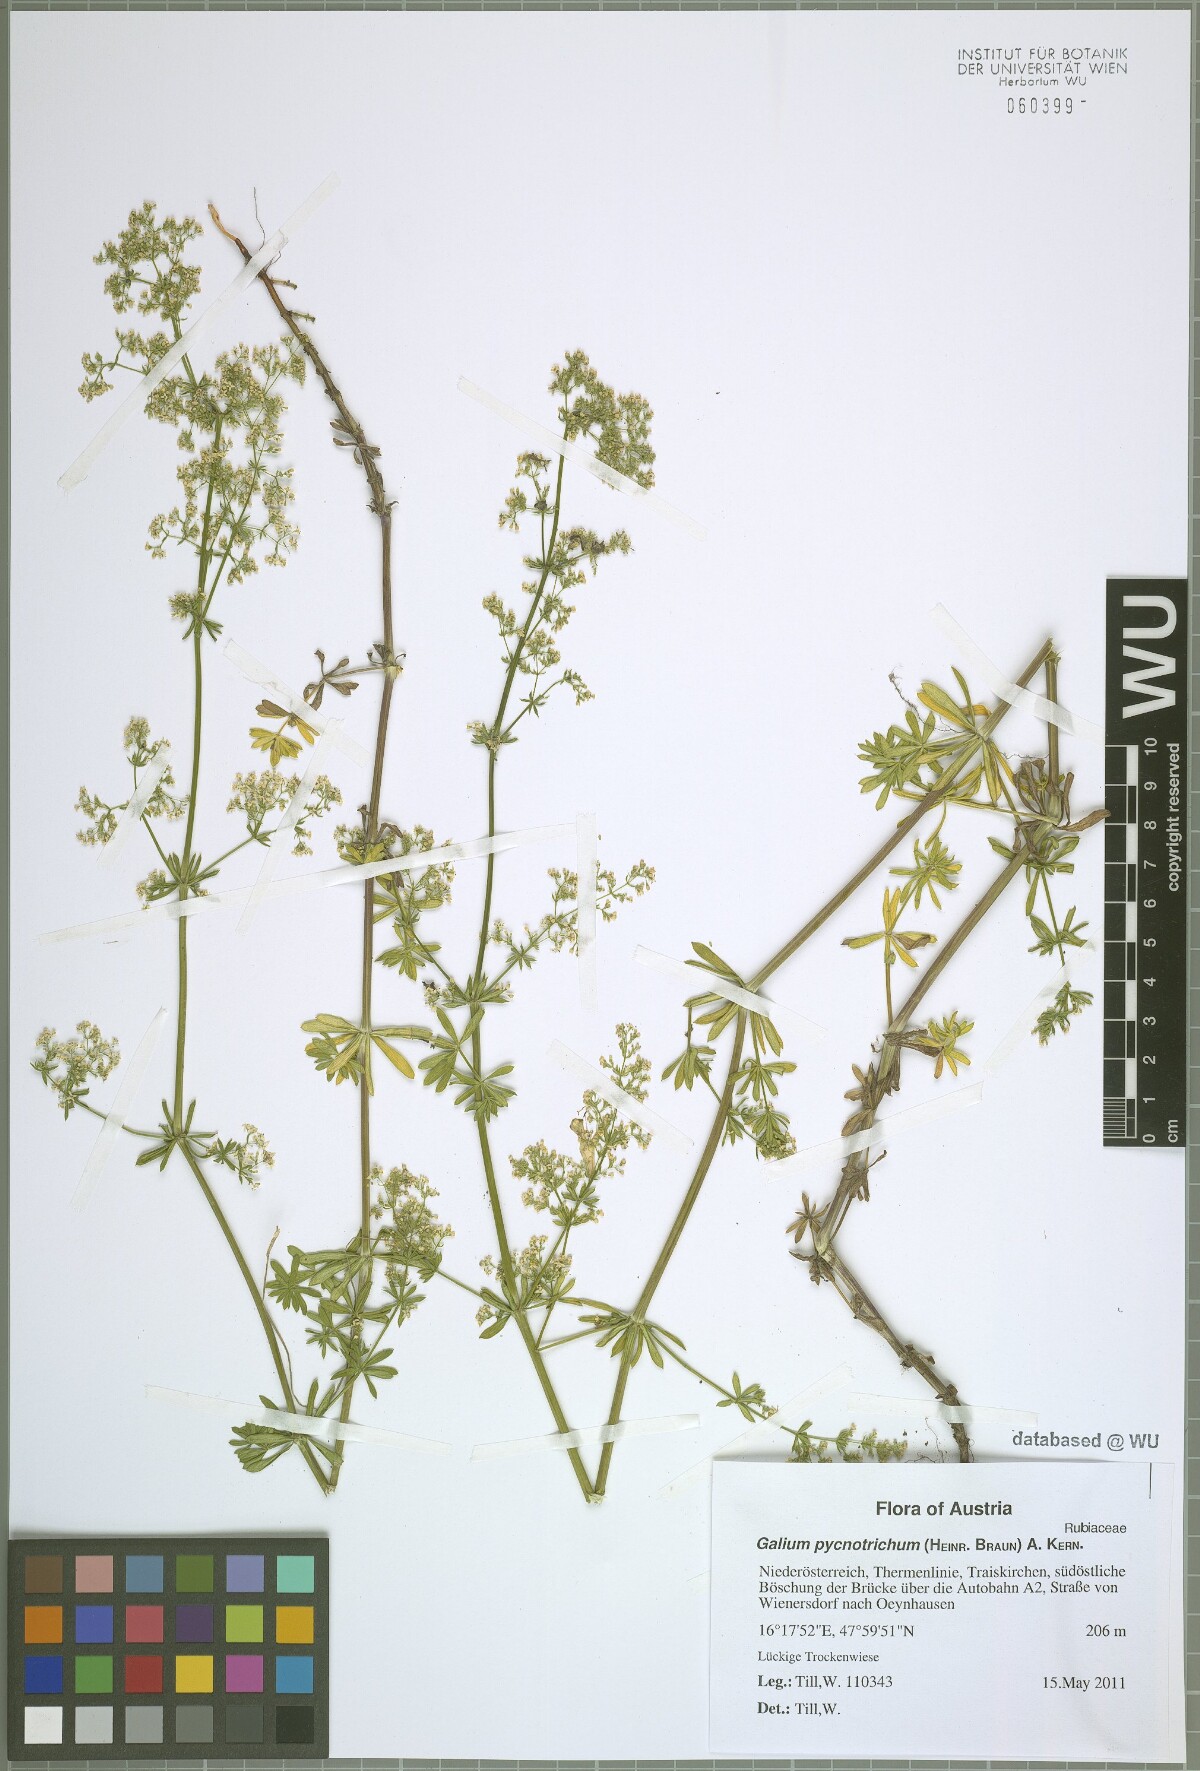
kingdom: Plantae
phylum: Tracheophyta
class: Magnoliopsida
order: Gentianales
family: Rubiaceae
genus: Galium
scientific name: Galium album
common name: White bedstraw
